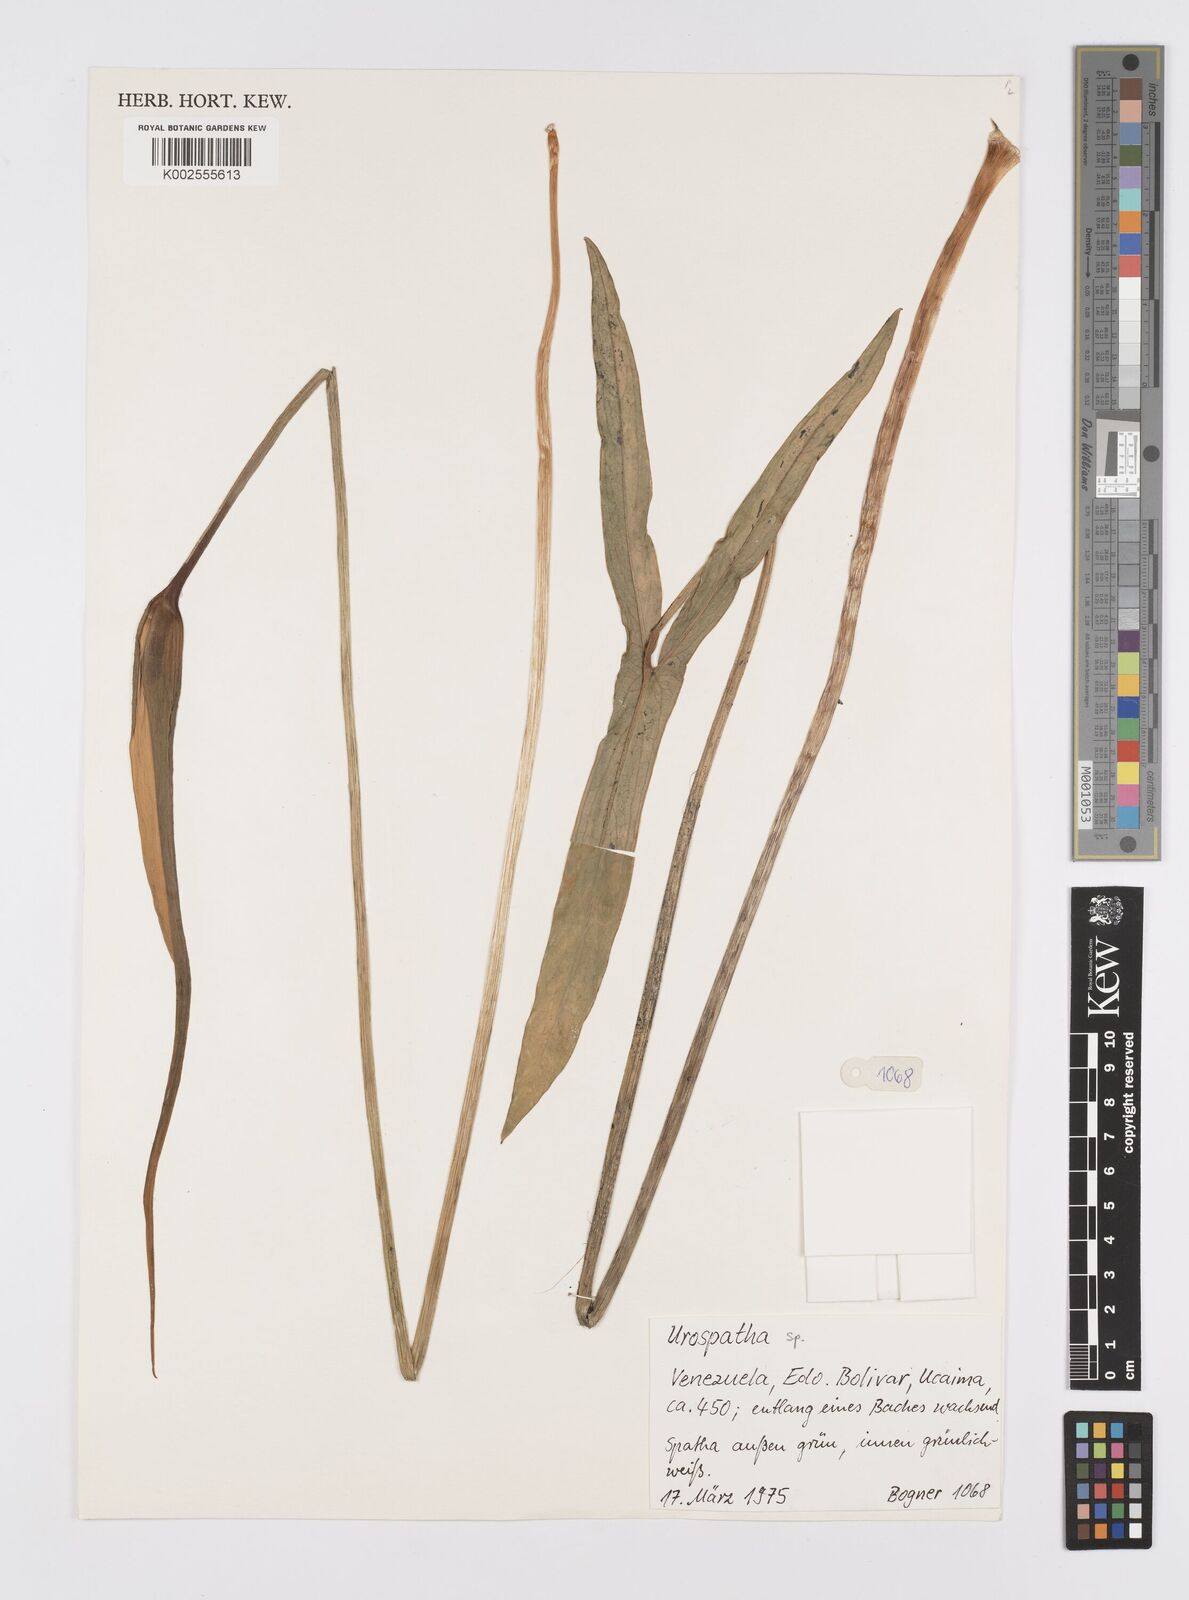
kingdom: Plantae
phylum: Tracheophyta
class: Liliopsida
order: Alismatales
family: Araceae
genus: Urospatha
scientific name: Urospatha
